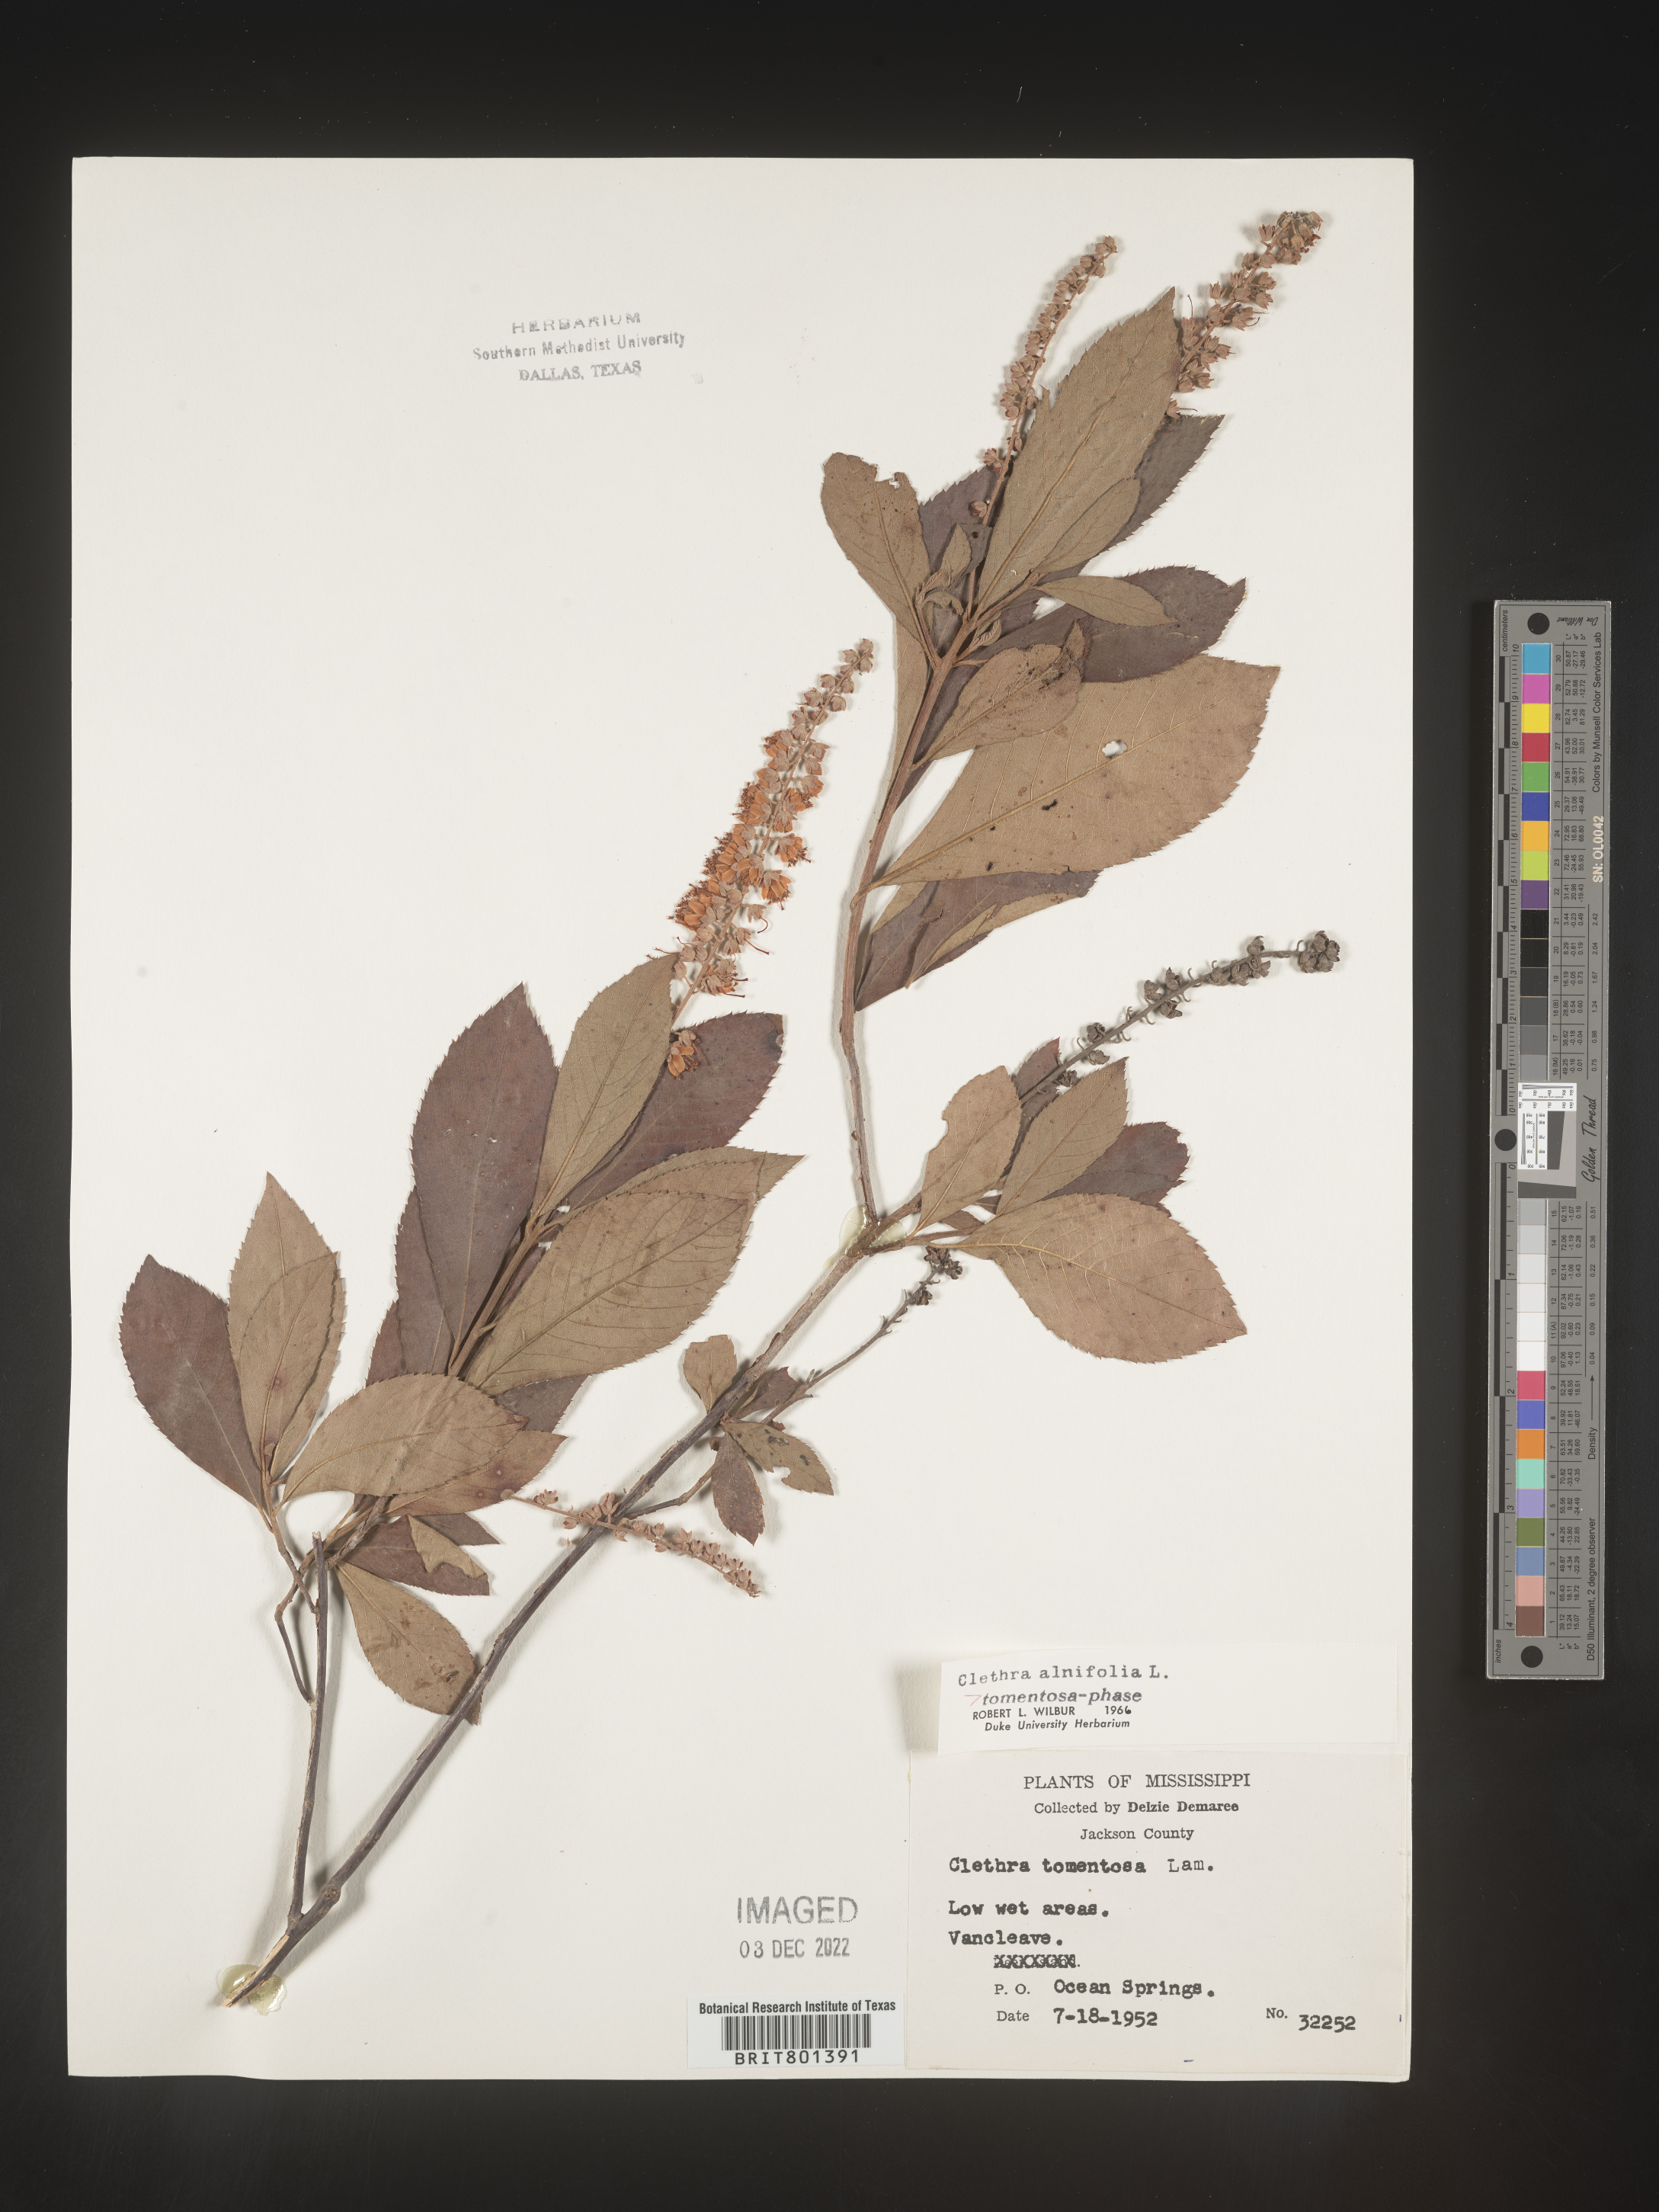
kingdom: Plantae
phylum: Tracheophyta
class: Magnoliopsida
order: Ericales
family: Clethraceae
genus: Clethra
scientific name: Clethra alnifolia
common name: Sweet pepperbush
